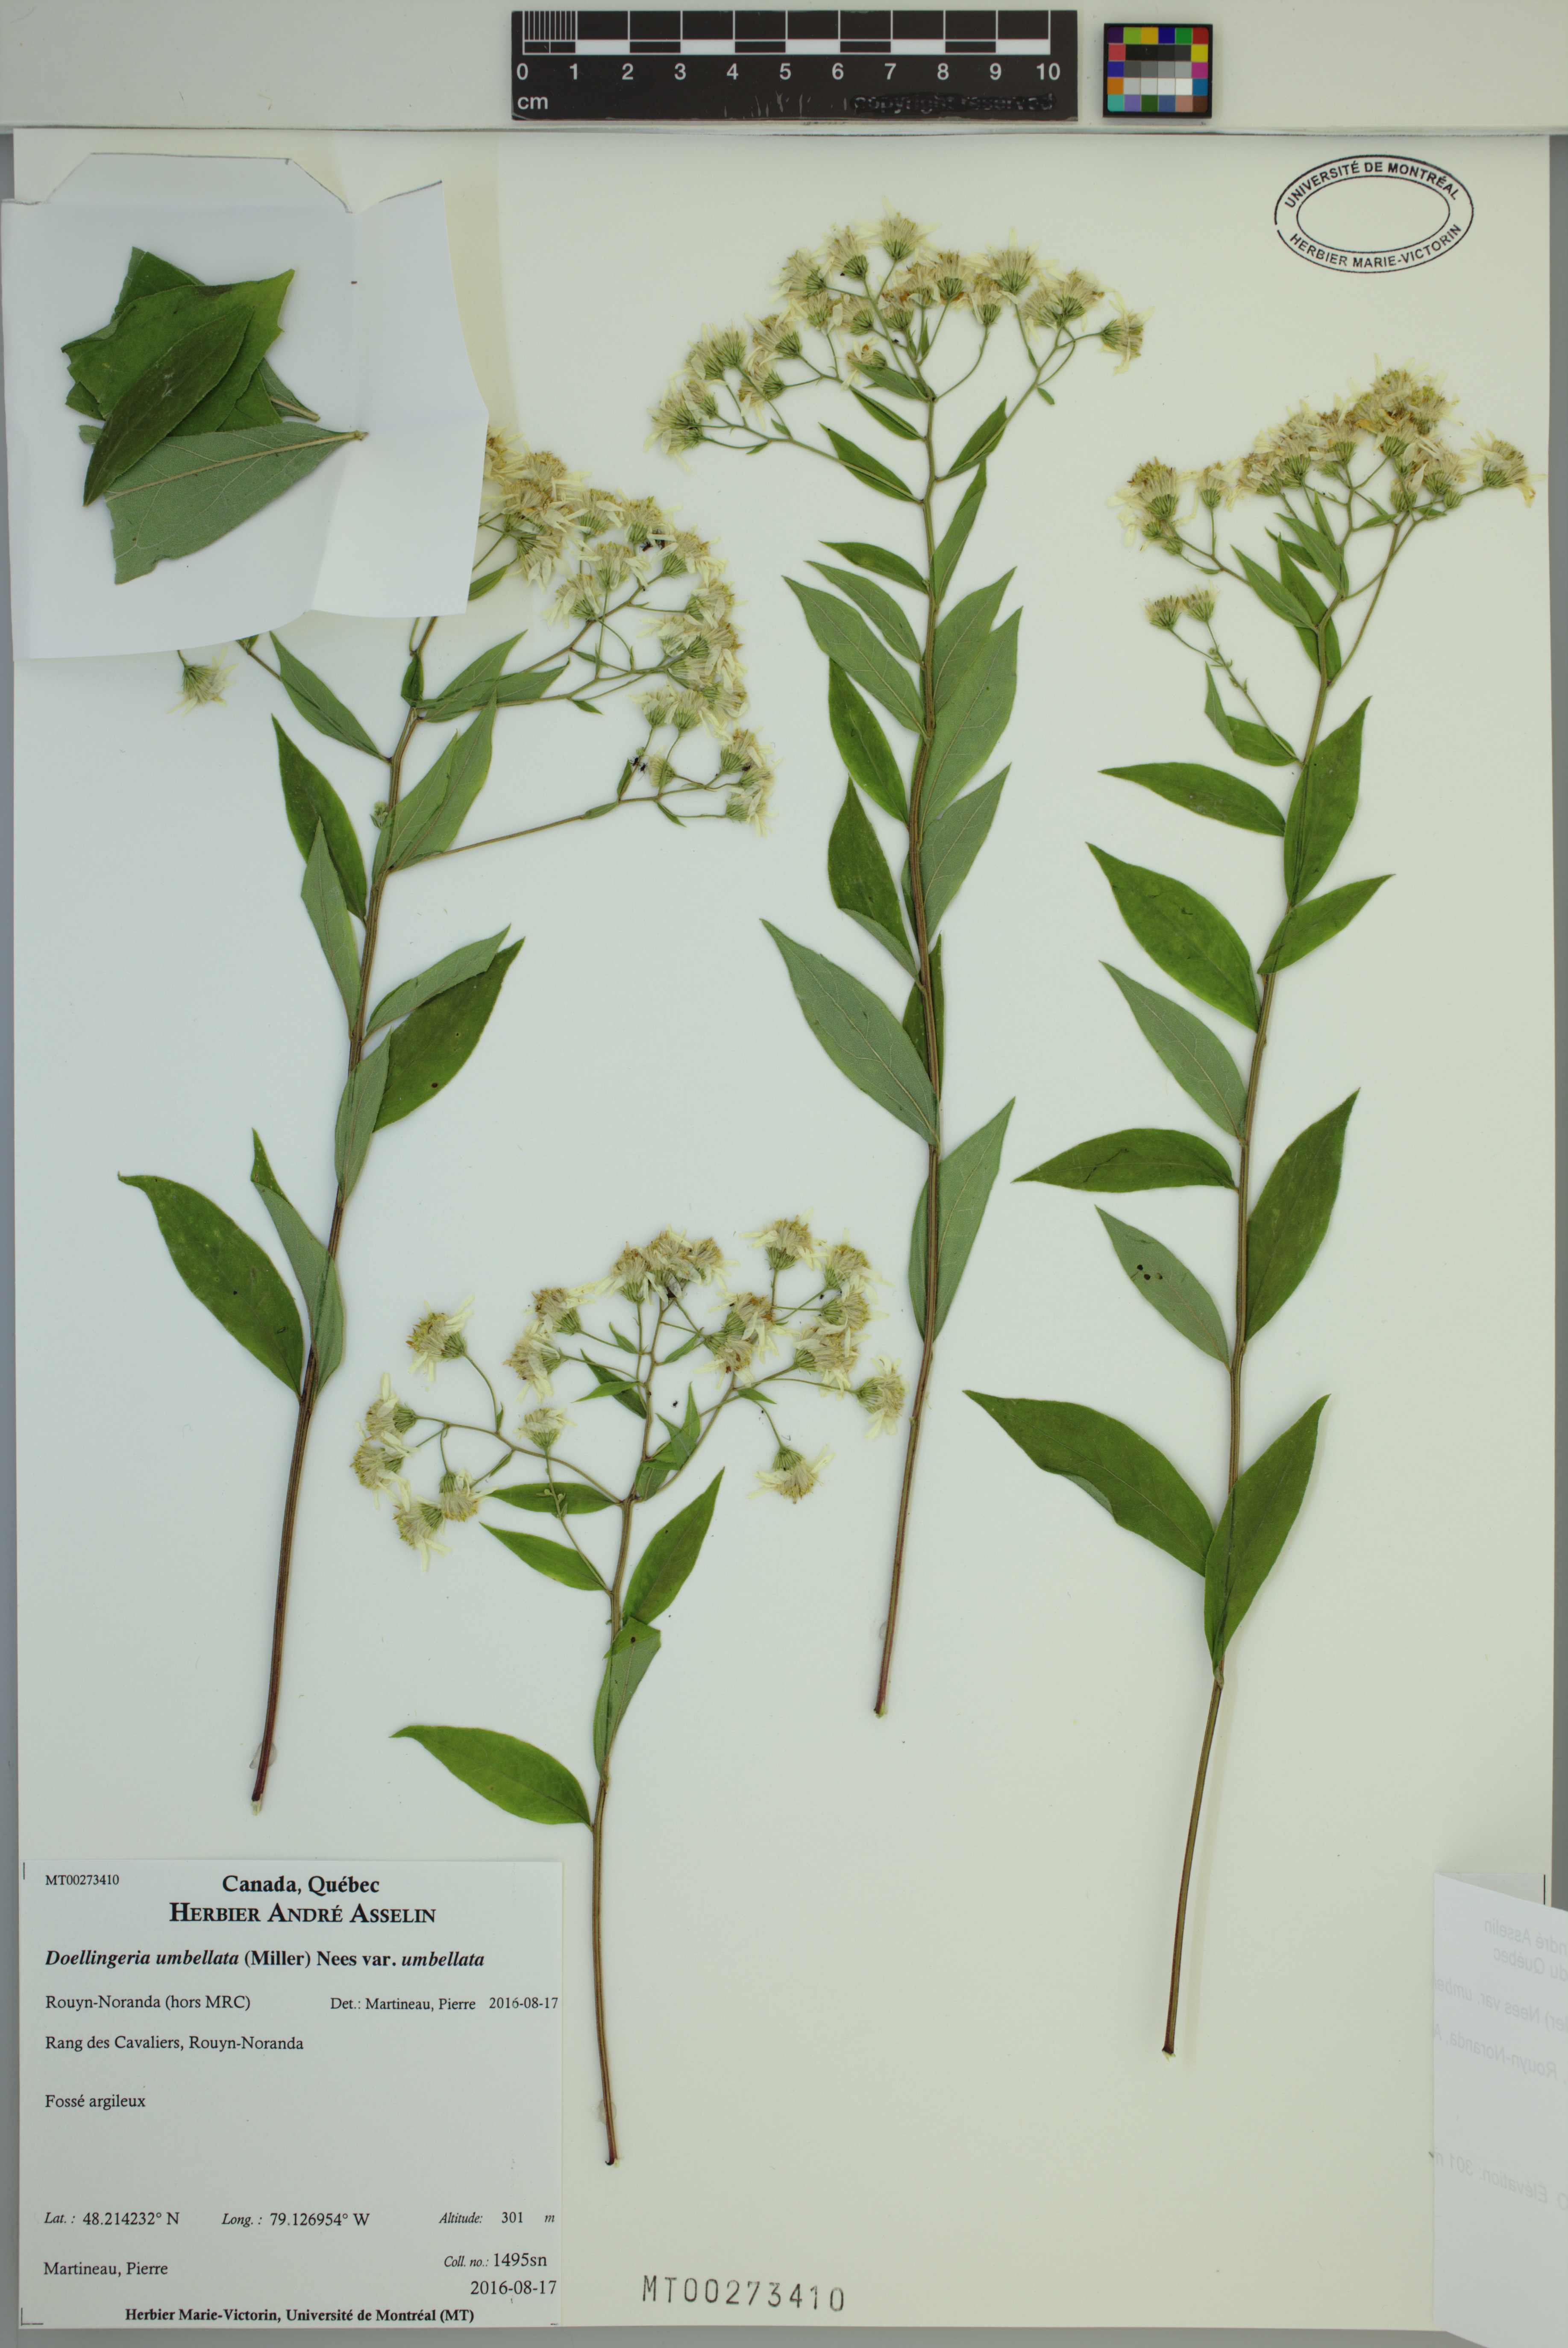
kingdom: Plantae
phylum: Tracheophyta
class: Magnoliopsida
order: Asterales
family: Asteraceae
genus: Doellingeria
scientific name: Doellingeria umbellata
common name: Flat-top white aster
